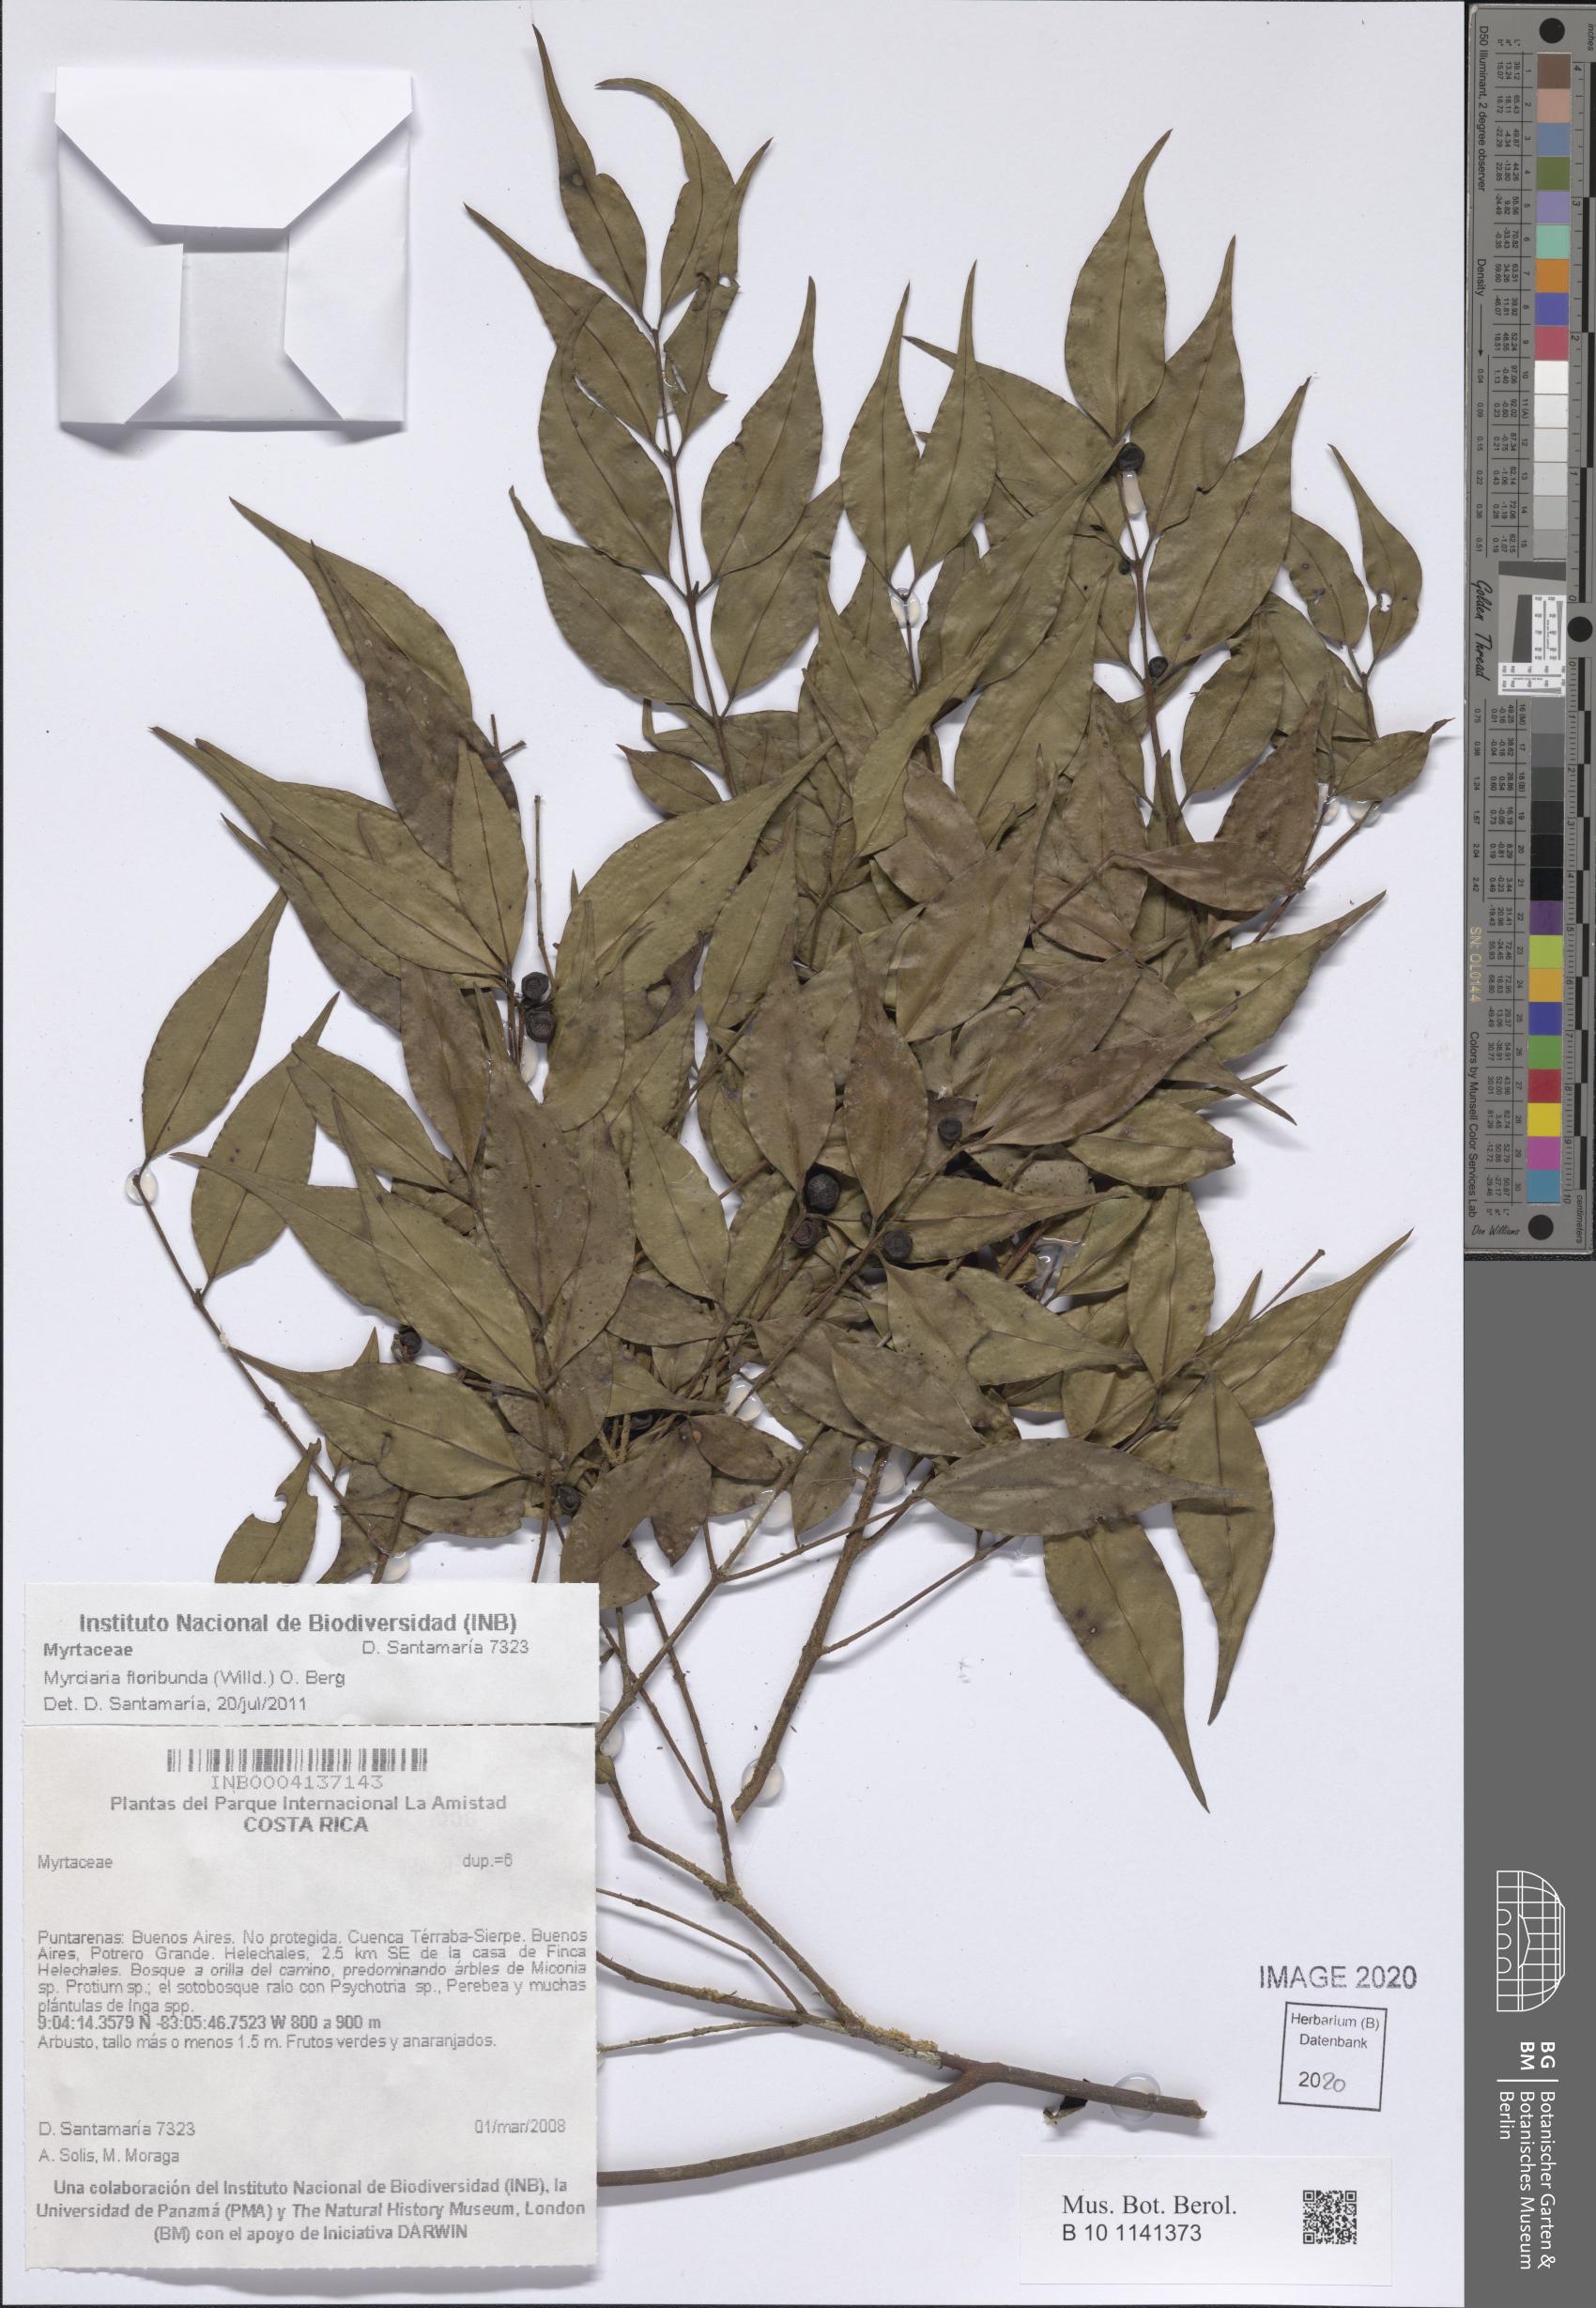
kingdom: Plantae
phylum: Tracheophyta
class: Magnoliopsida
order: Myrtales
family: Myrtaceae
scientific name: Myrtaceae
